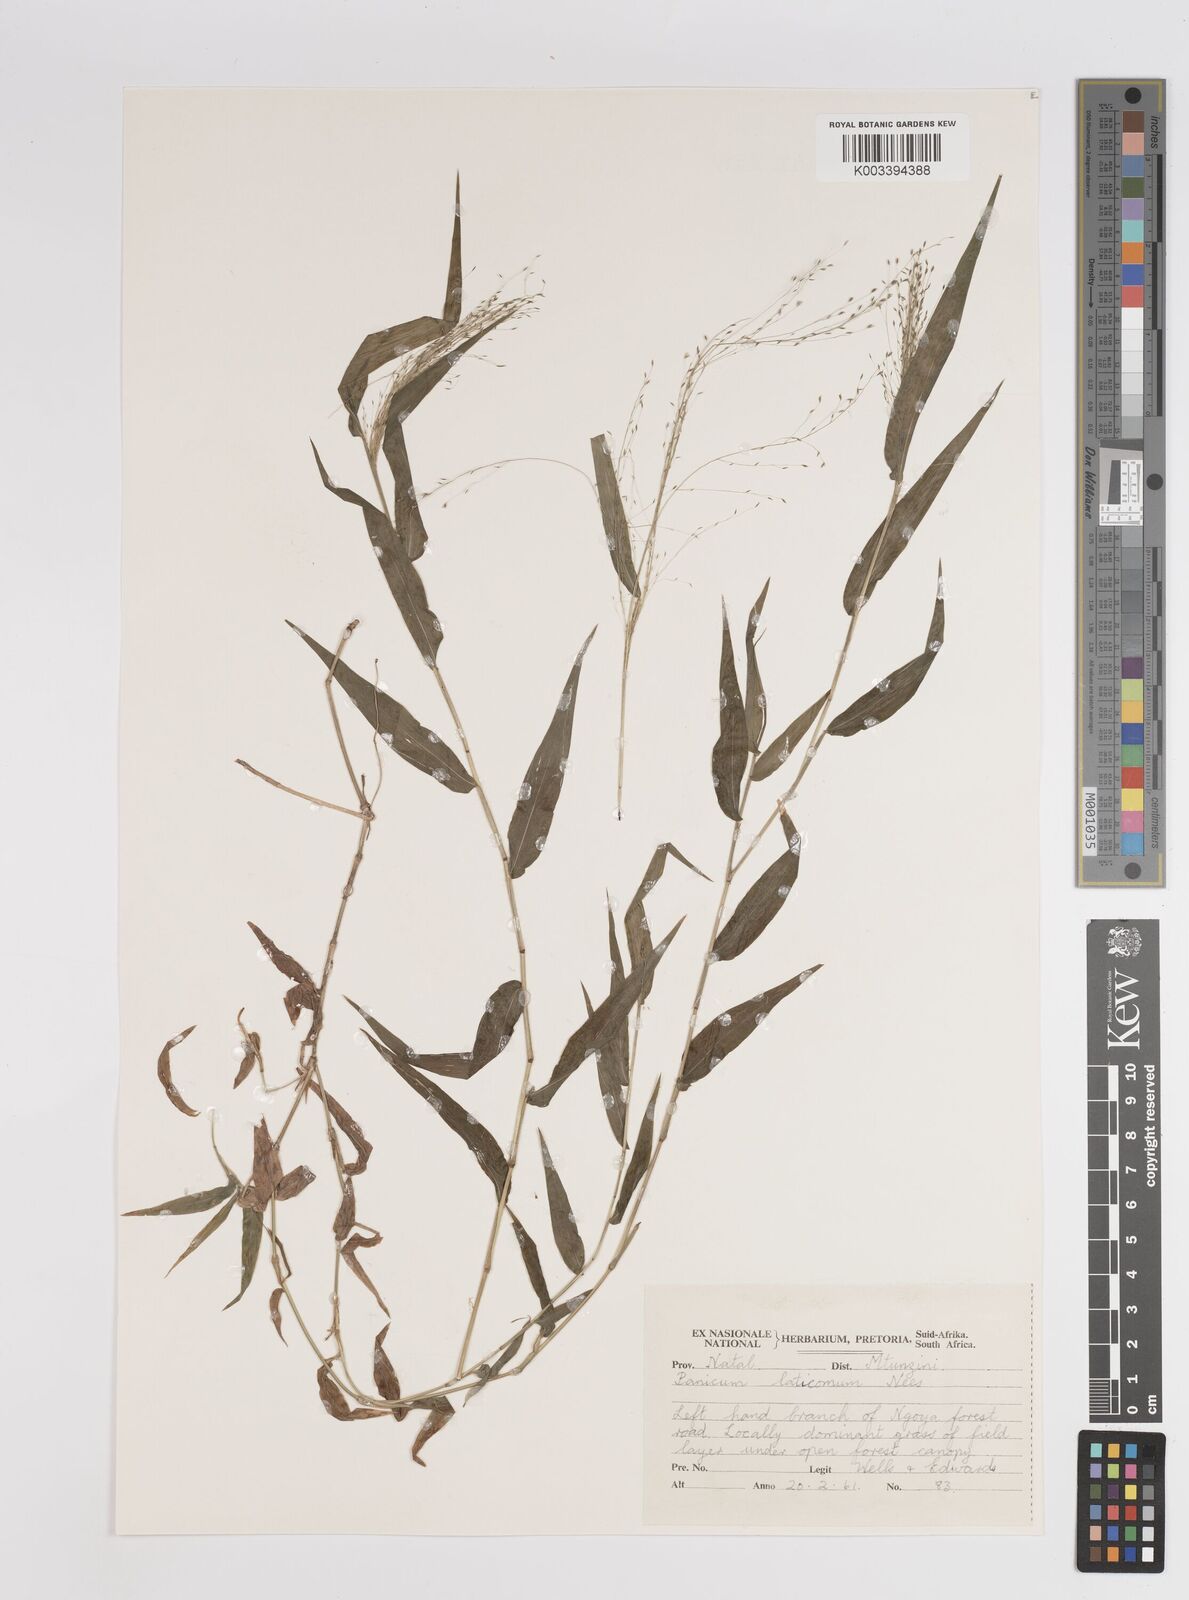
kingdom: Plantae
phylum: Tracheophyta
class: Liliopsida
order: Poales
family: Poaceae
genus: Panicum
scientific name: Panicum laticomum
